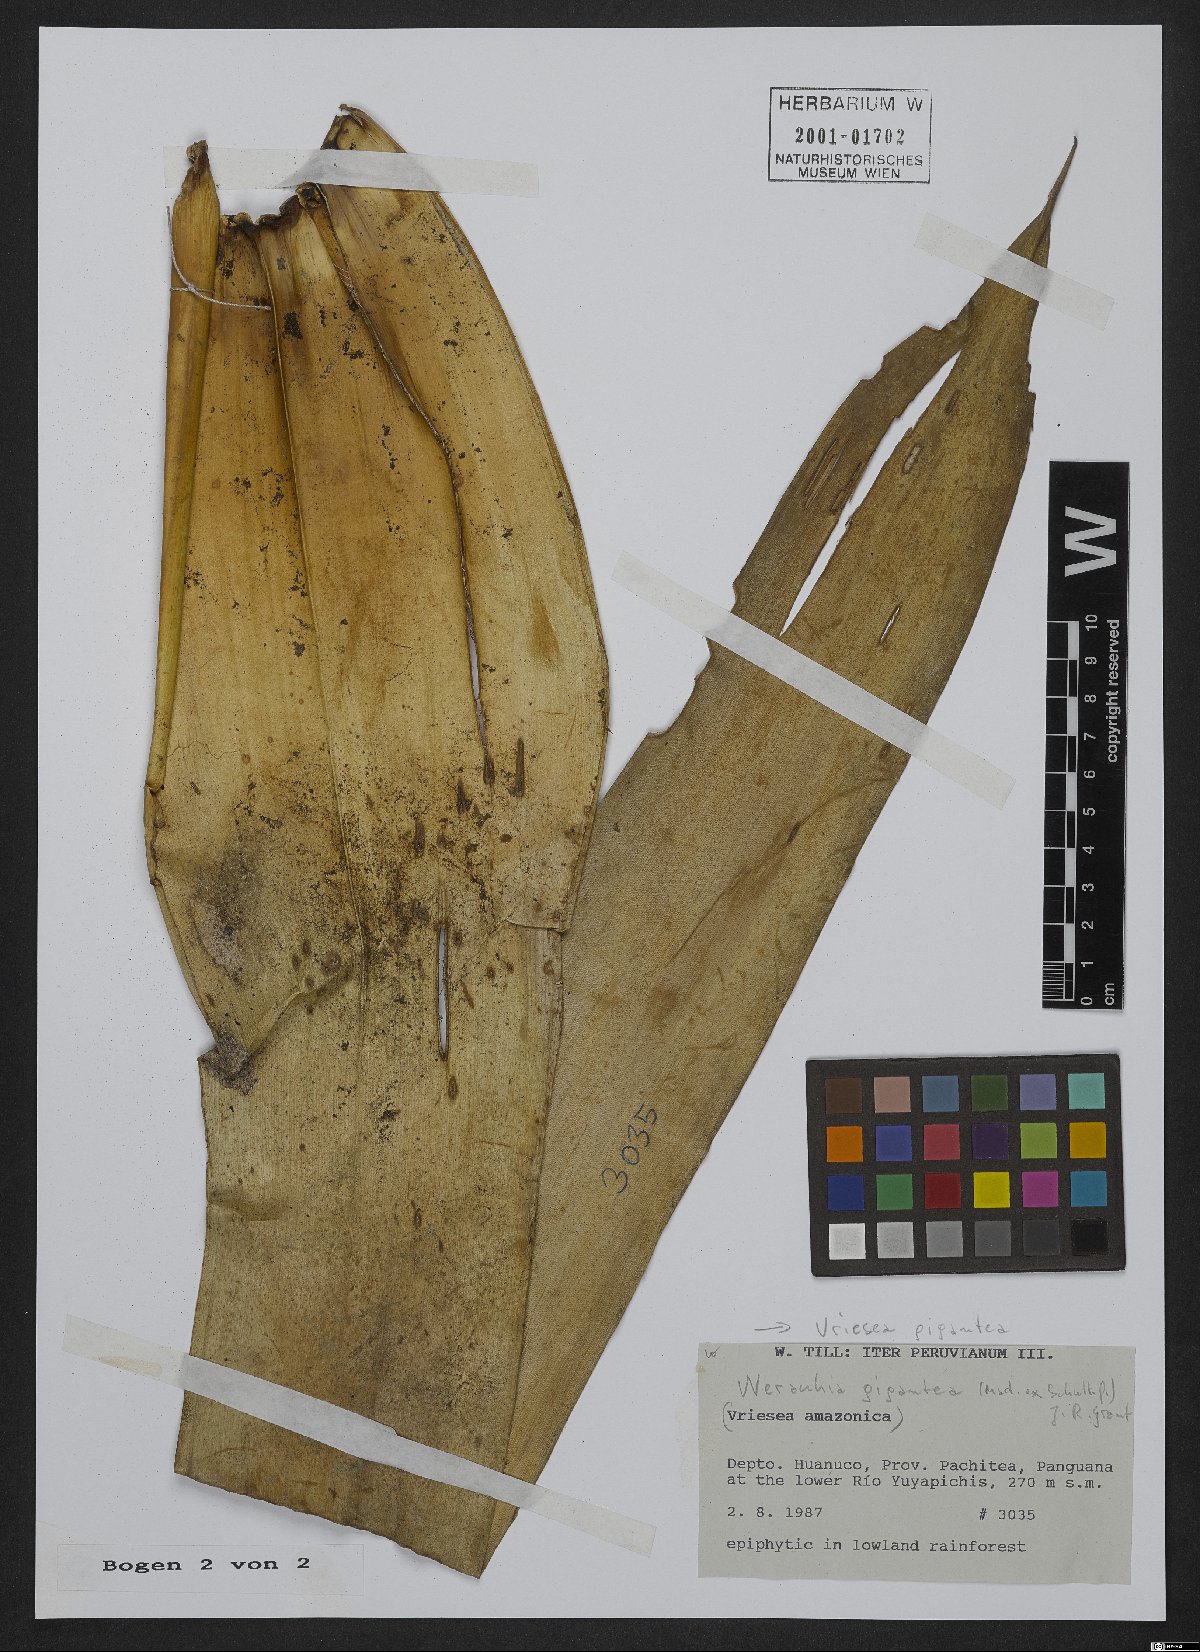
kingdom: Plantae
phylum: Tracheophyta
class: Liliopsida
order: Poales
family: Bromeliaceae
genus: Vriesea
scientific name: Vriesea gigantea
